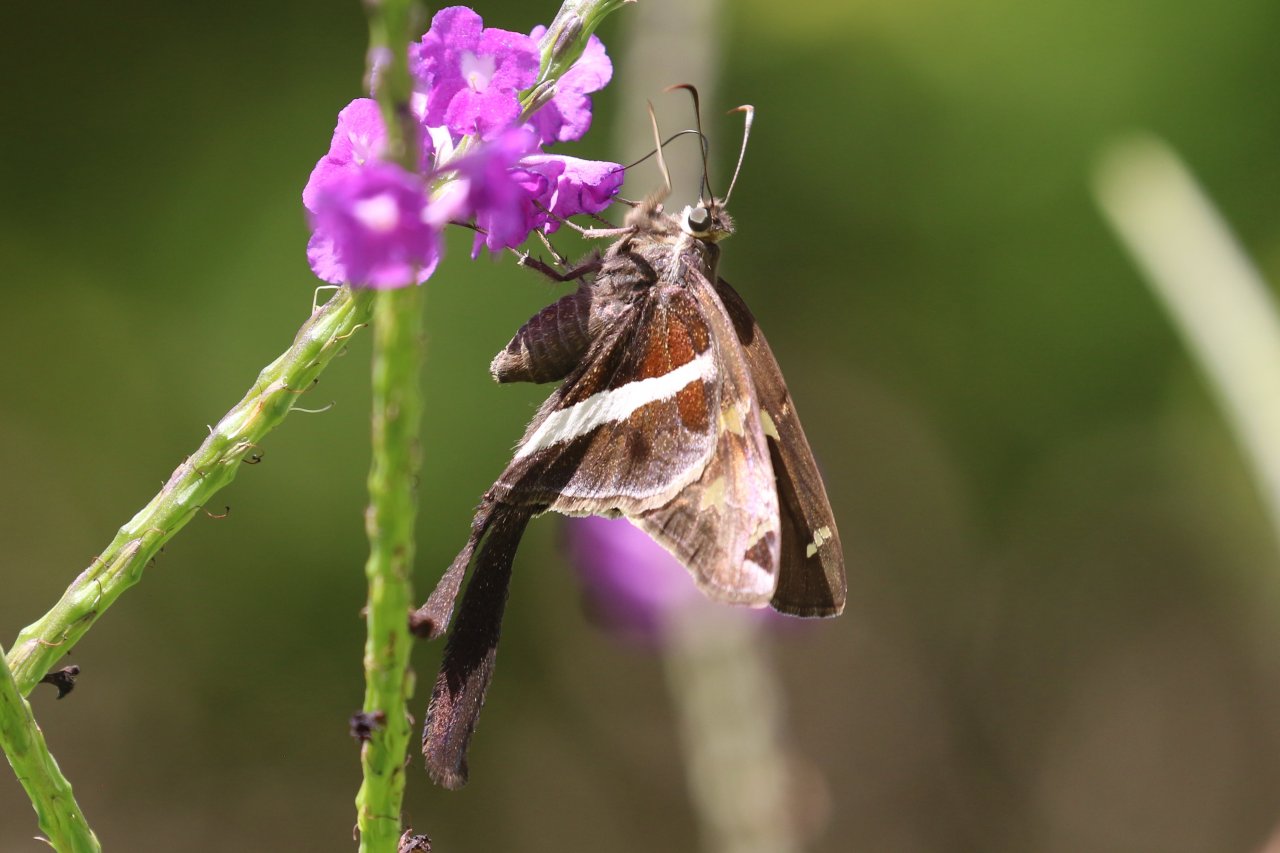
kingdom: Animalia
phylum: Arthropoda
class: Insecta
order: Lepidoptera
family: Hesperiidae
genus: Chioides
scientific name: Chioides catillus
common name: White-striped Longtail
